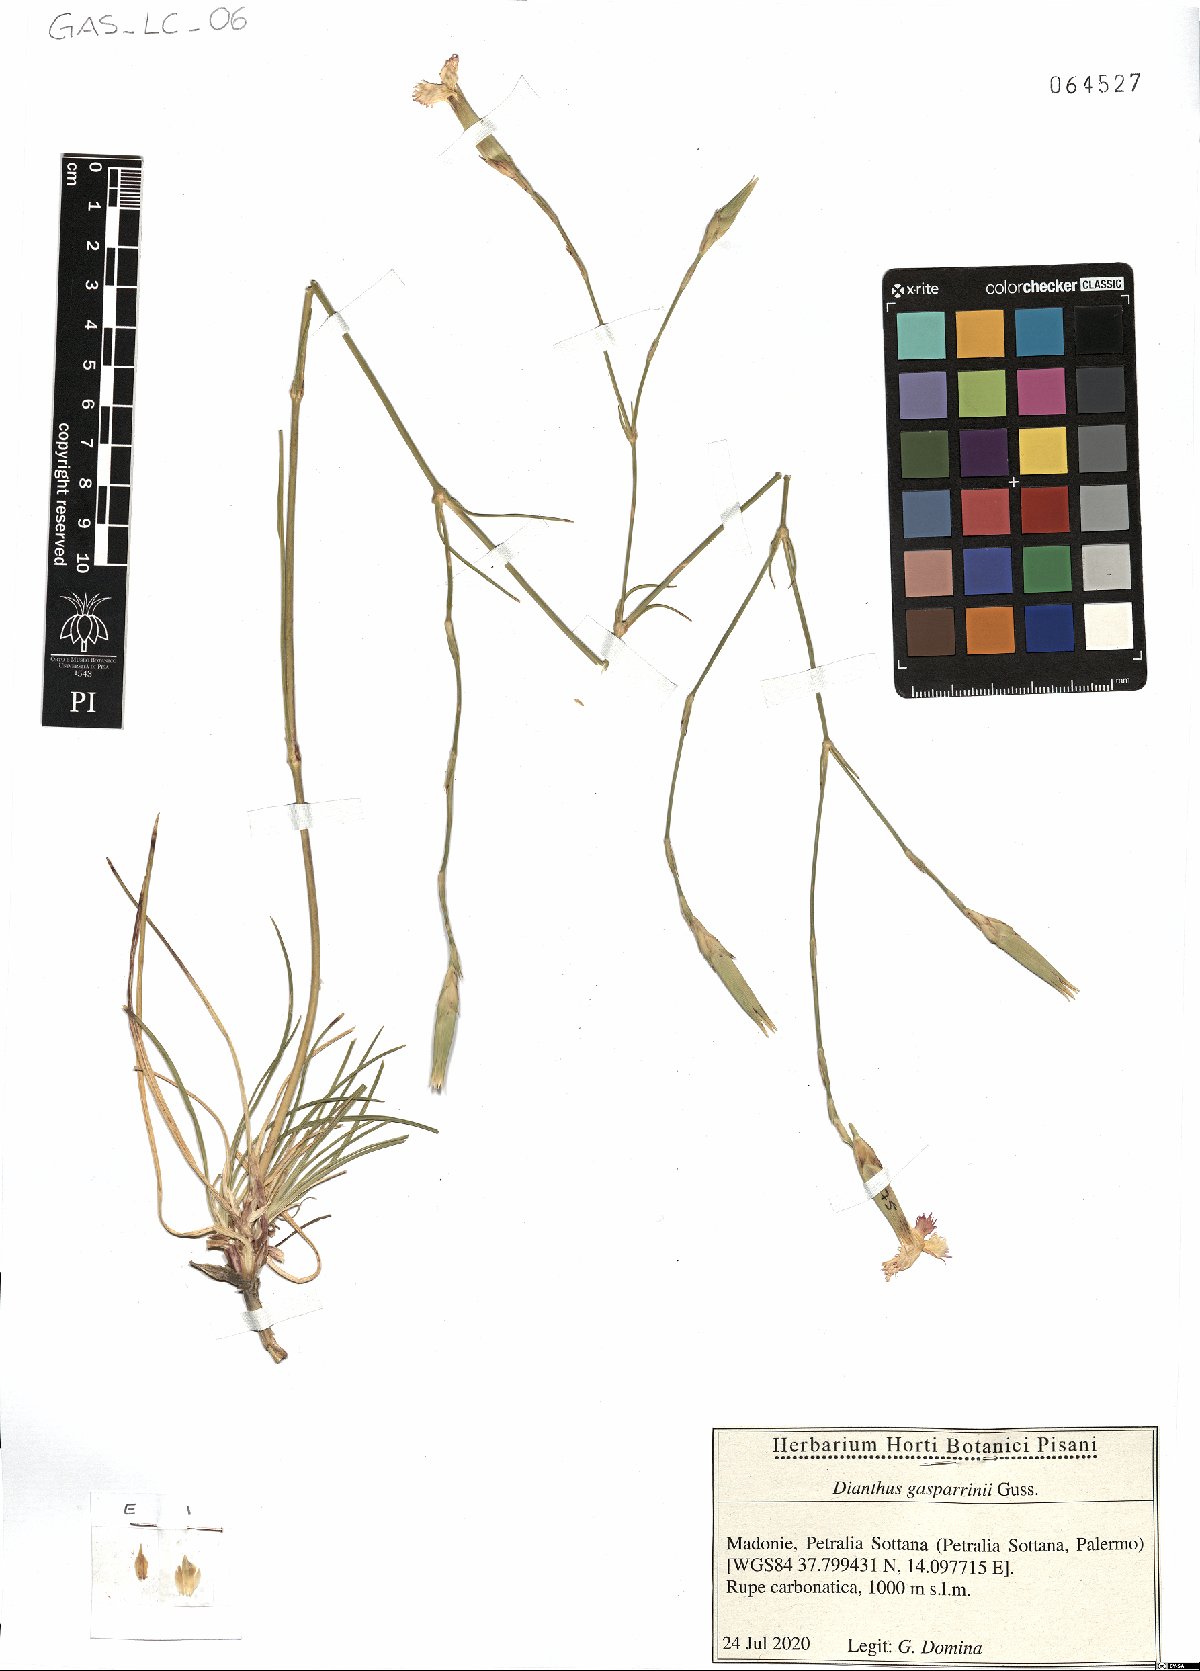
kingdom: Plantae
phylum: Tracheophyta
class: Magnoliopsida
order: Caryophyllales
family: Caryophyllaceae
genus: Dianthus
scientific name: Dianthus gasparrinii
